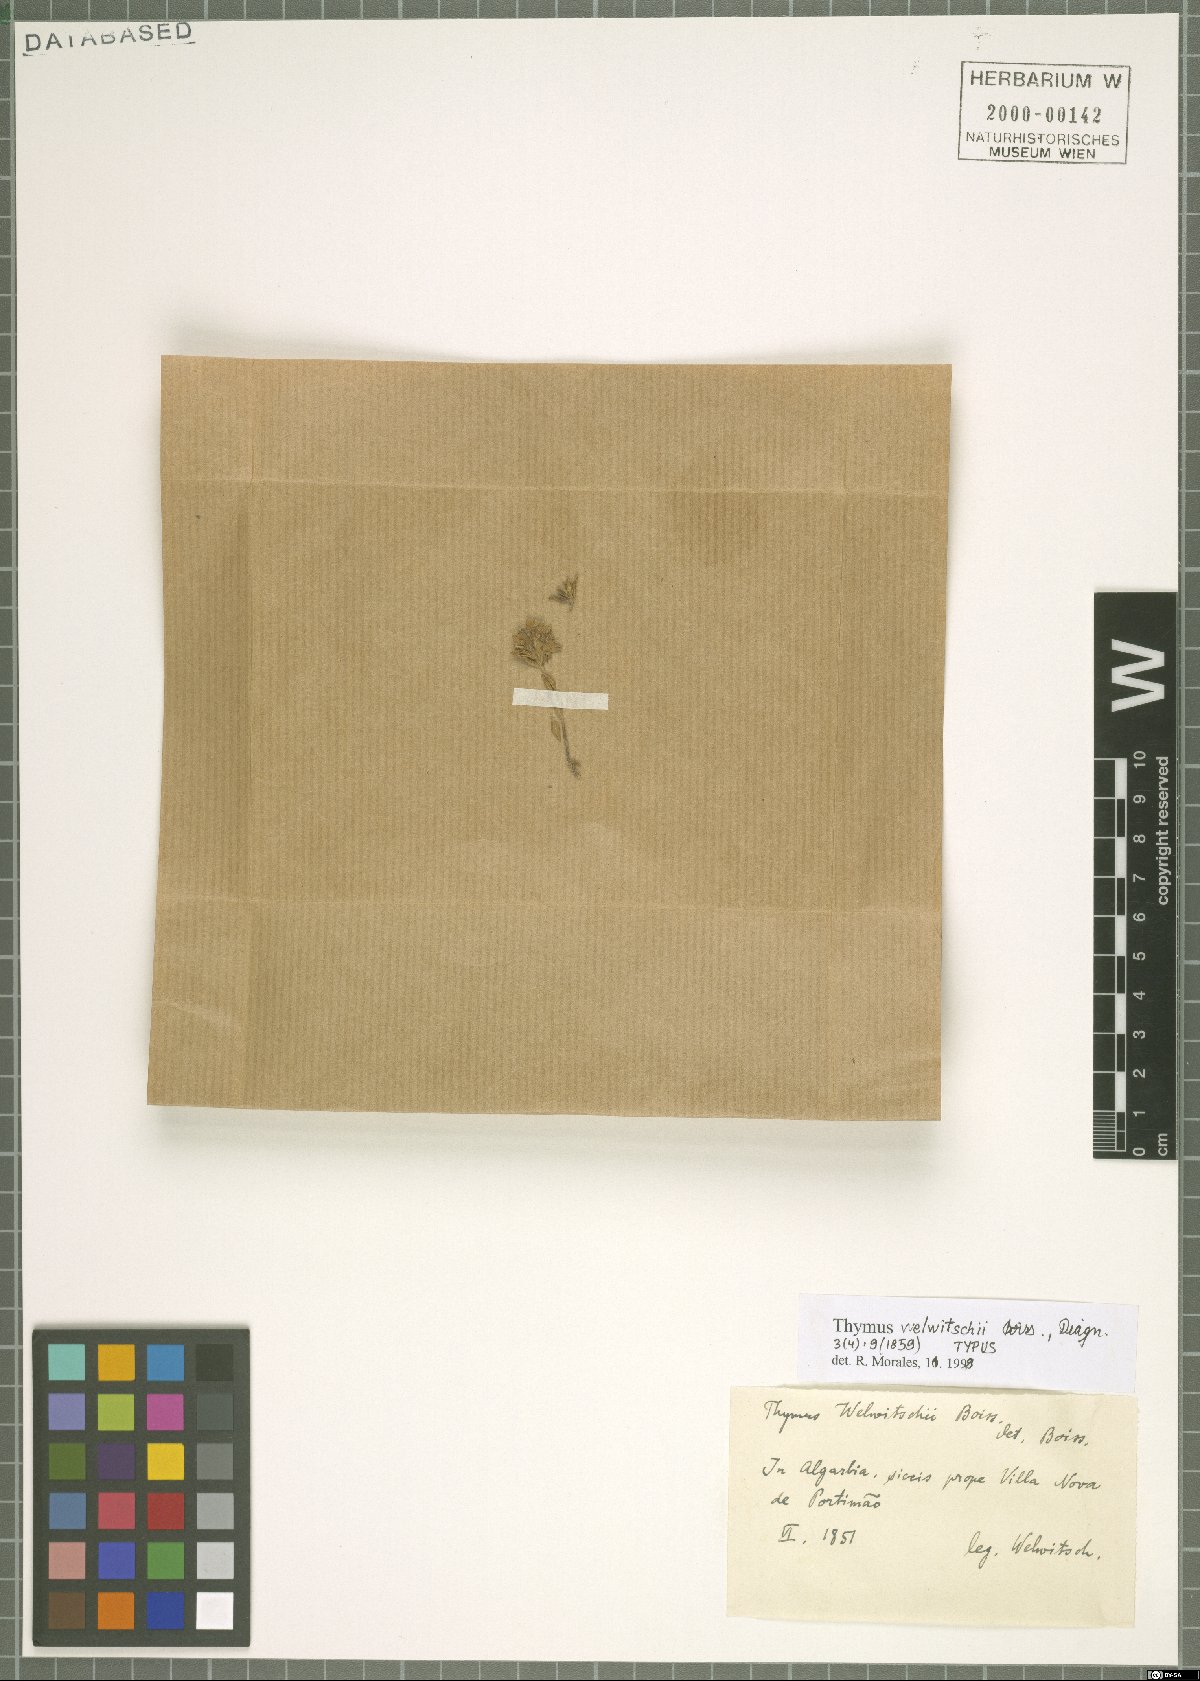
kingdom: Plantae
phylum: Tracheophyta
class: Magnoliopsida
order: Lamiales
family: Lamiaceae
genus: Thymus
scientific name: Thymus welwitschii
